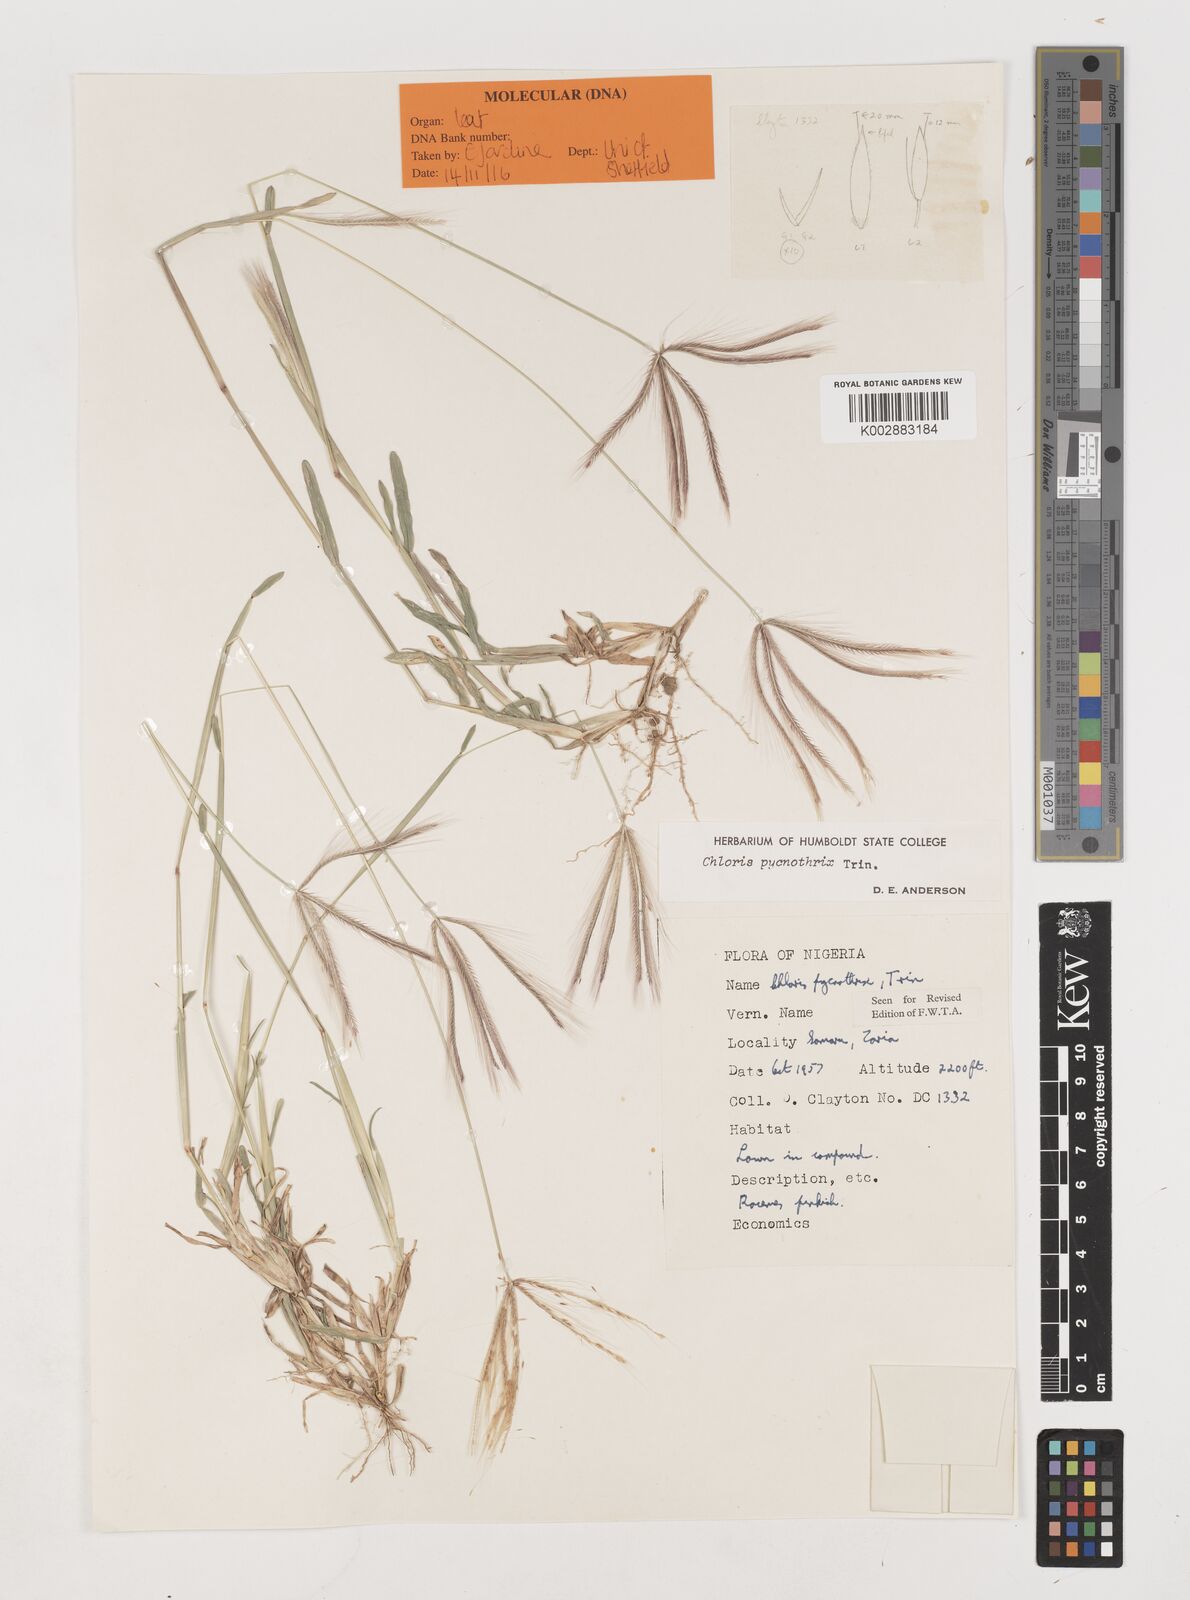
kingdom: Plantae
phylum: Tracheophyta
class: Liliopsida
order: Poales
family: Poaceae
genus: Chloris
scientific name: Chloris pycnothrix
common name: Spiderweb chloris
